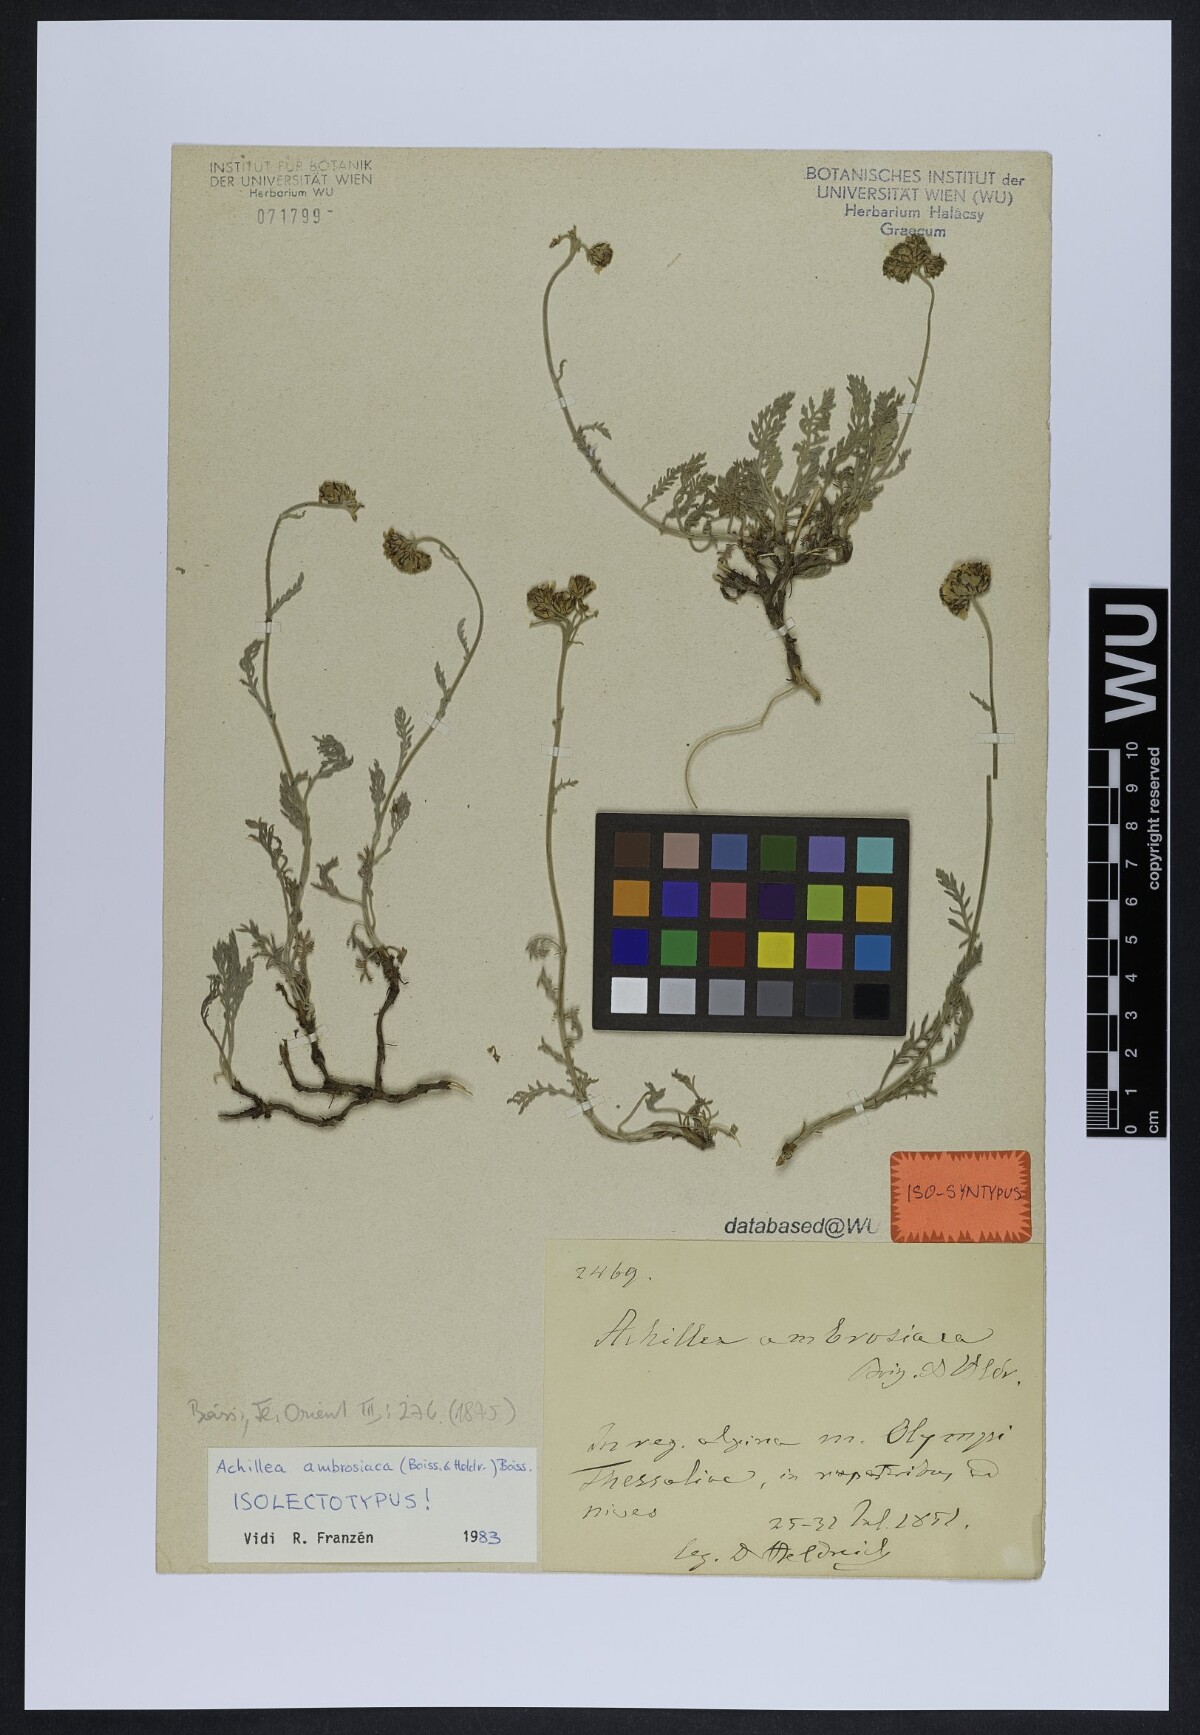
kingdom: Plantae
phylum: Tracheophyta
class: Magnoliopsida
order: Asterales
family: Asteraceae
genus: Achillea
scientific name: Achillea ambrosiaca
